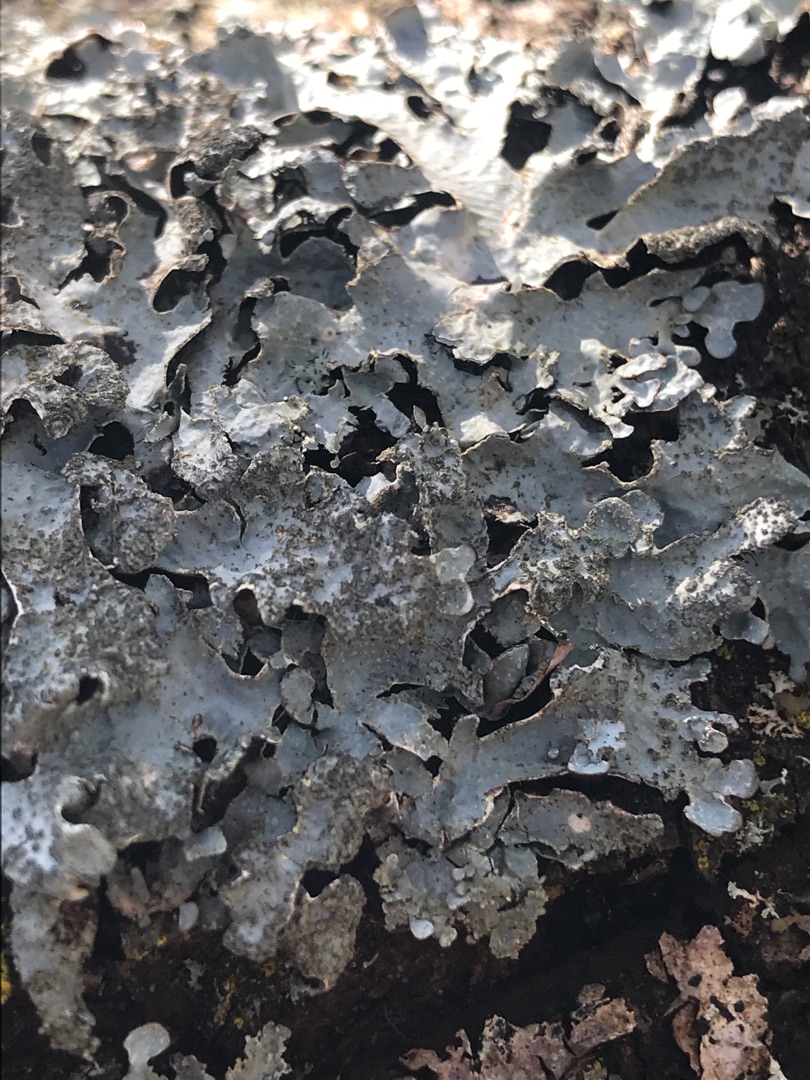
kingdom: Fungi
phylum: Ascomycota
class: Lecanoromycetes
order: Lecanorales
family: Parmeliaceae
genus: Parmelia
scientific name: Parmelia sulcata
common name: Rynket skållav
